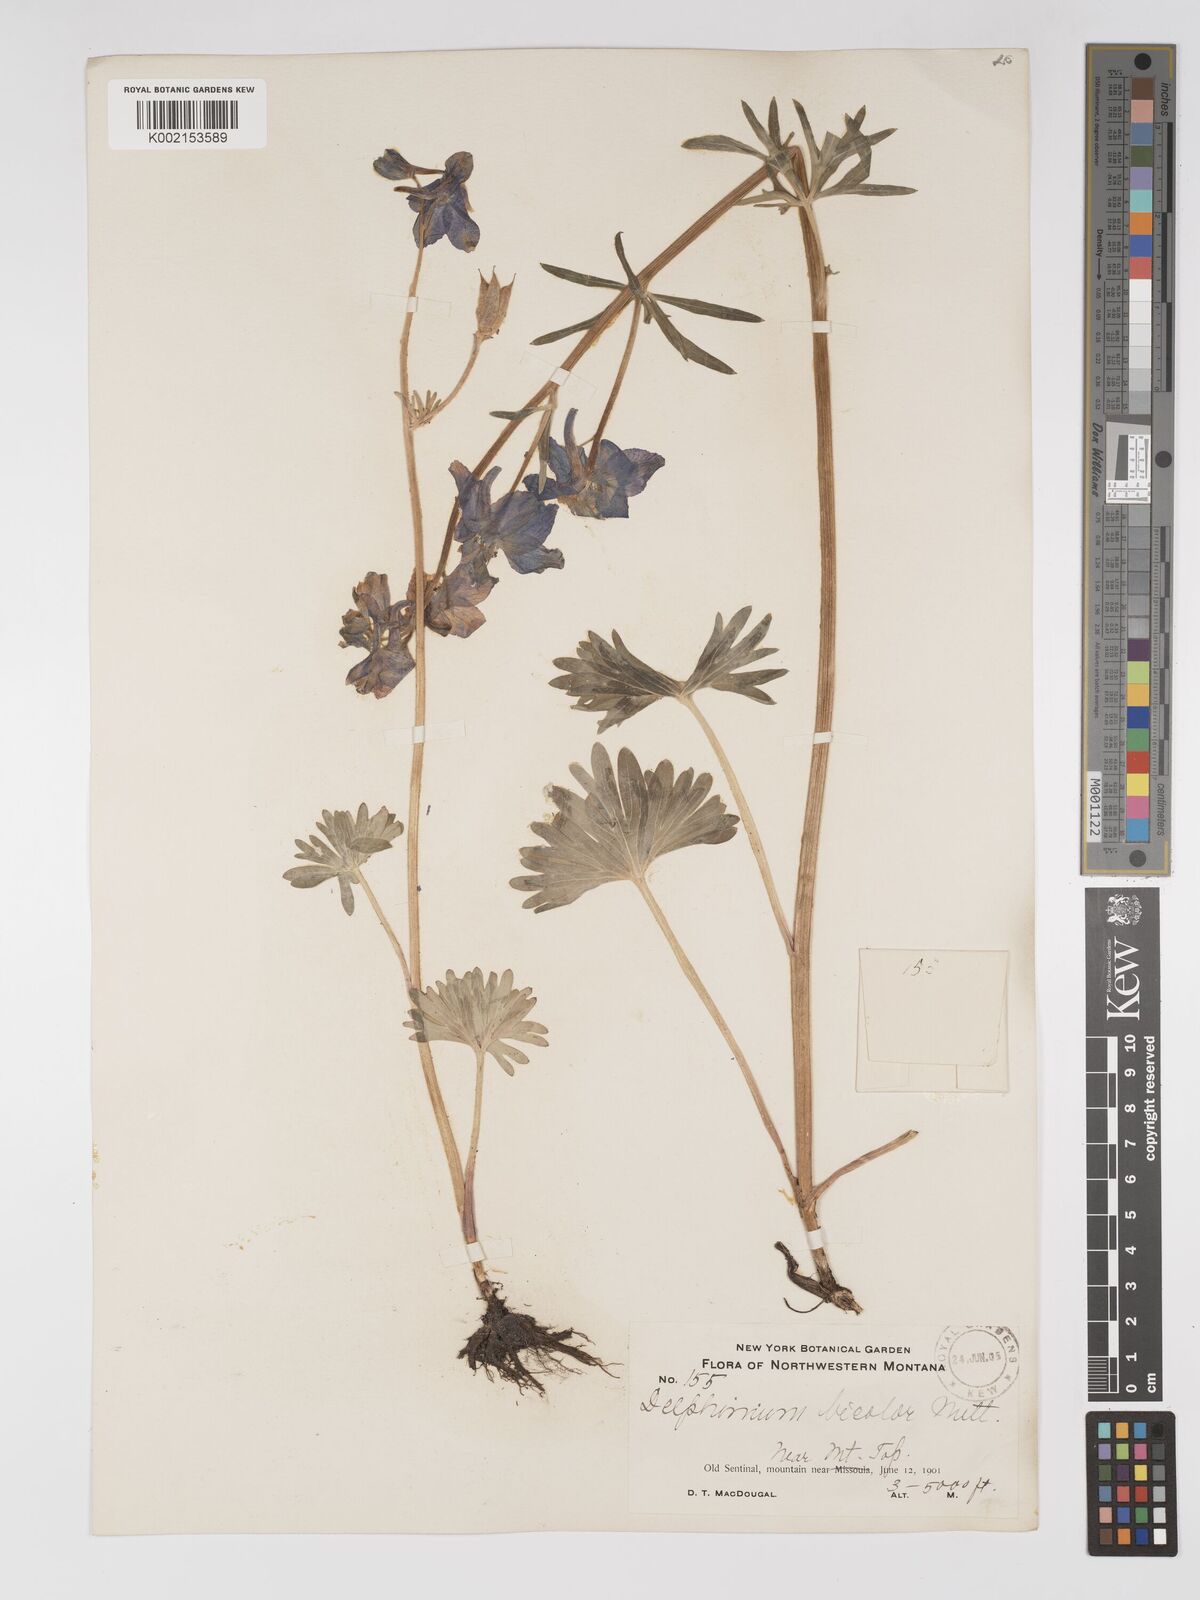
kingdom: Plantae
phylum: Tracheophyta
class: Magnoliopsida
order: Ranunculales
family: Ranunculaceae
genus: Delphinium
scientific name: Delphinium bicolor
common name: Low larkspur
